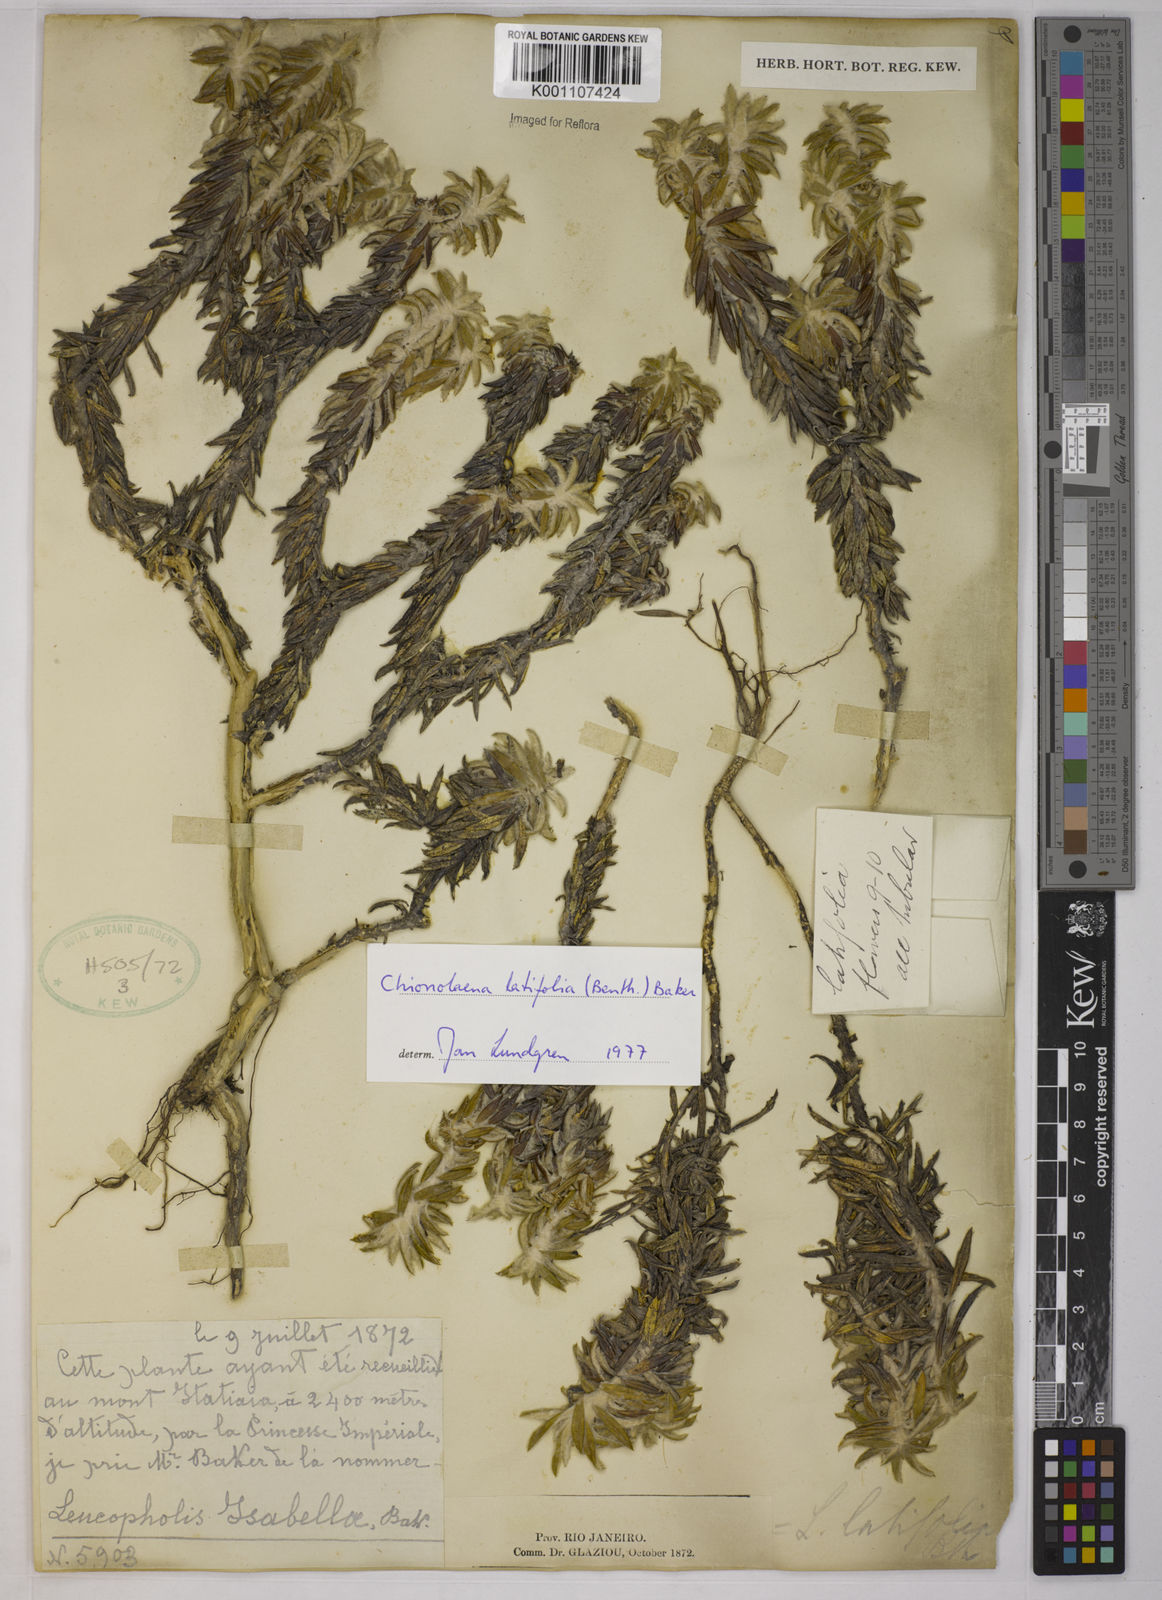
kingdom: Plantae
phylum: Tracheophyta
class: Magnoliopsida
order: Asterales
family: Asteraceae
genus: Chionolaena
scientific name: Chionolaena latifolia
